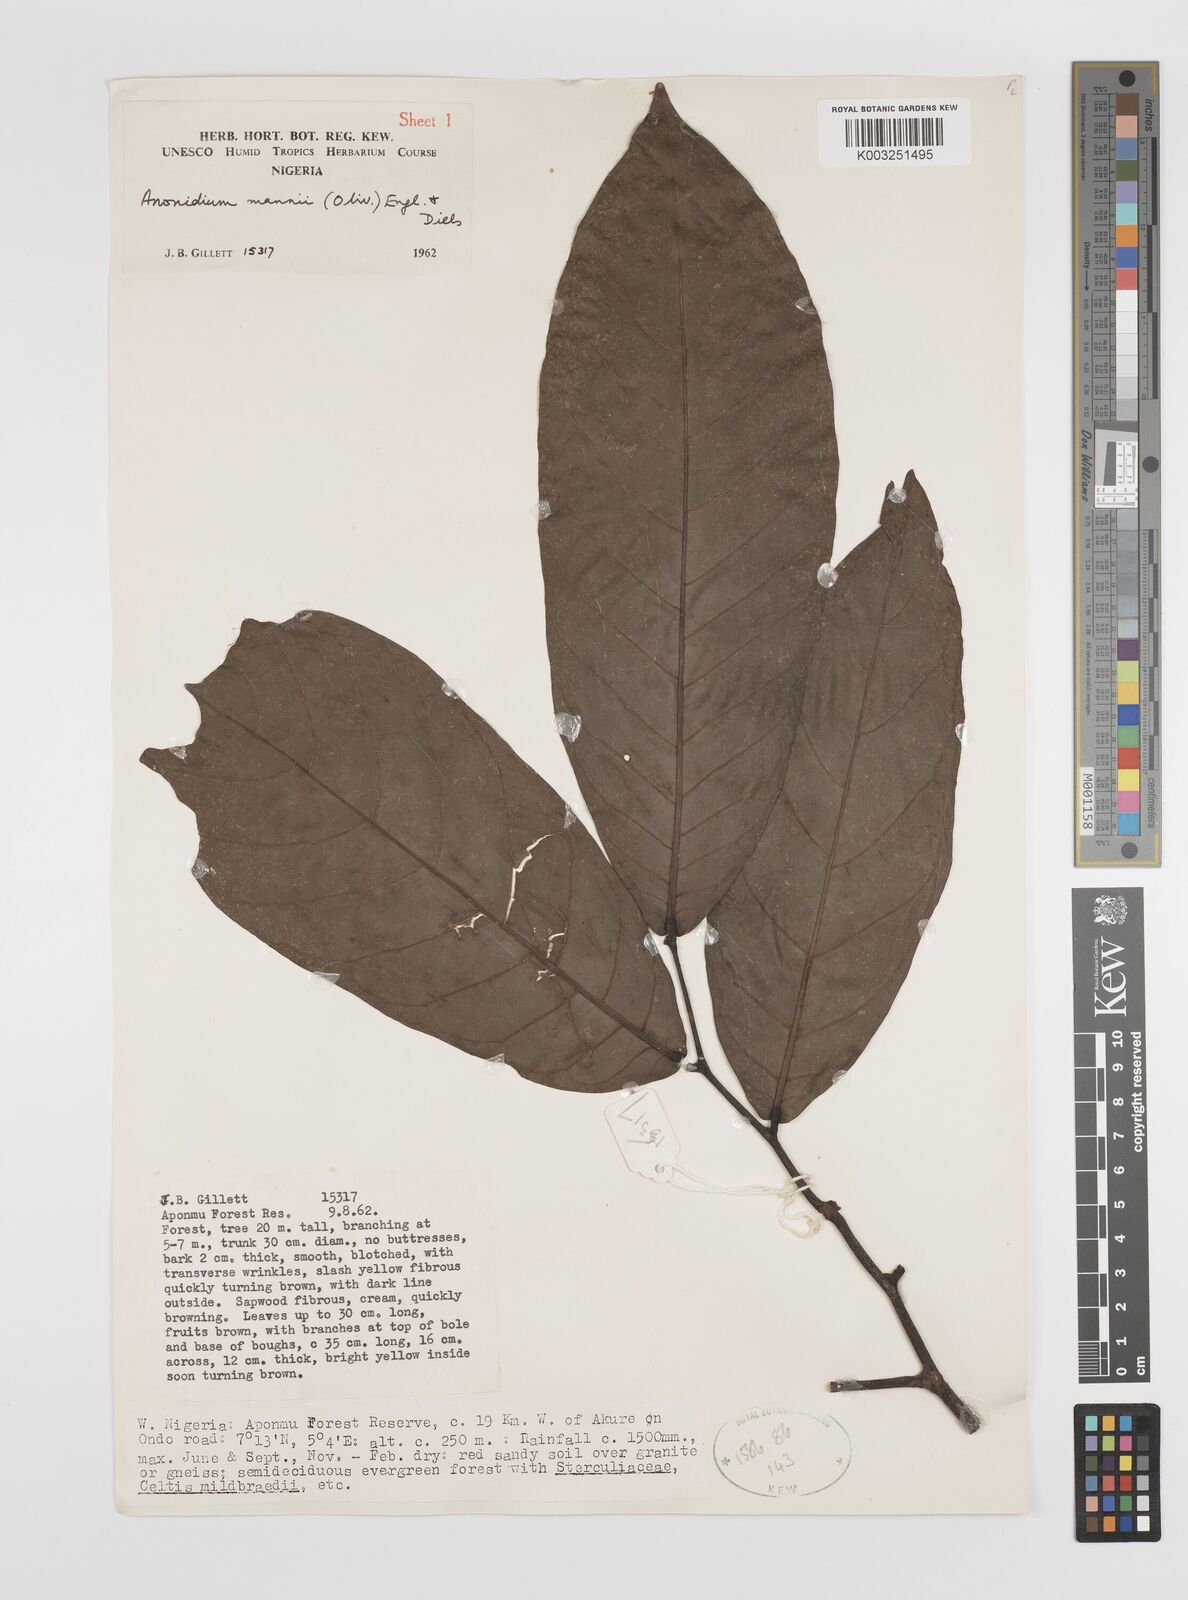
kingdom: Plantae
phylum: Tracheophyta
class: Magnoliopsida
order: Magnoliales
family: Annonaceae
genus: Anonidium
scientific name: Anonidium mannii
